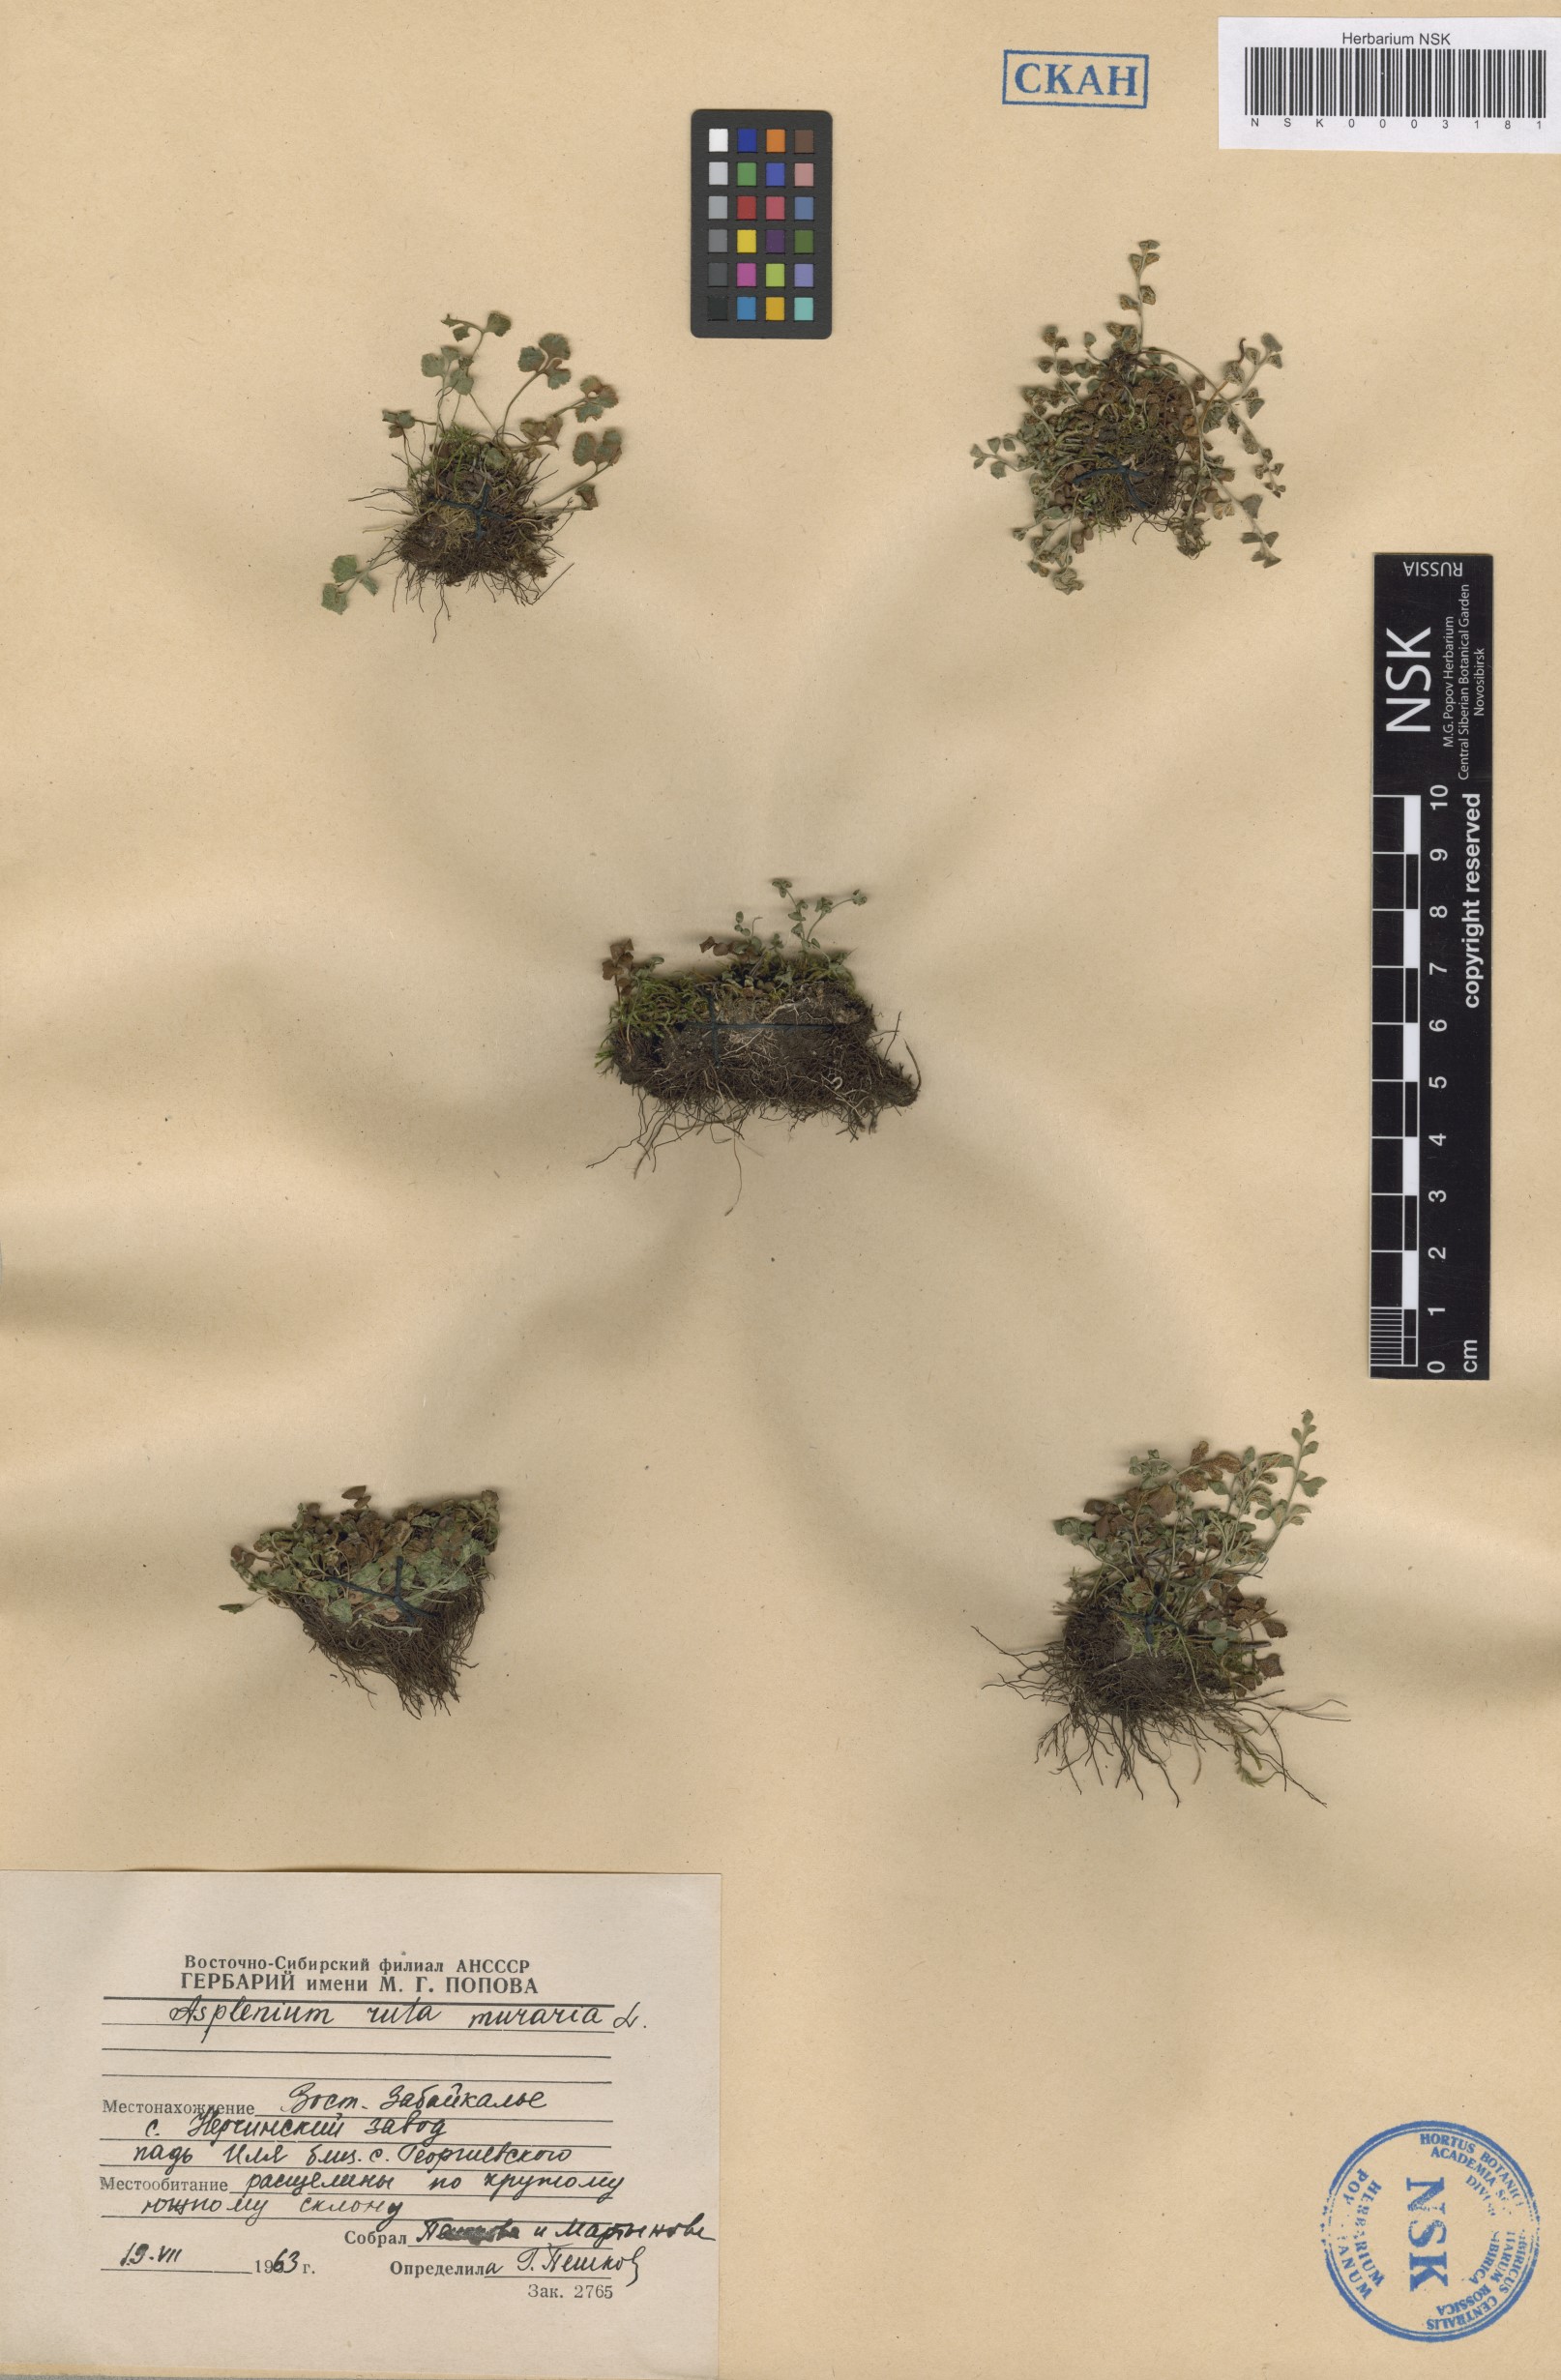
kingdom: Plantae
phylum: Tracheophyta
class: Polypodiopsida
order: Polypodiales
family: Aspleniaceae
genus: Asplenium
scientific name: Asplenium ruta-muraria
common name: Wall-rue
